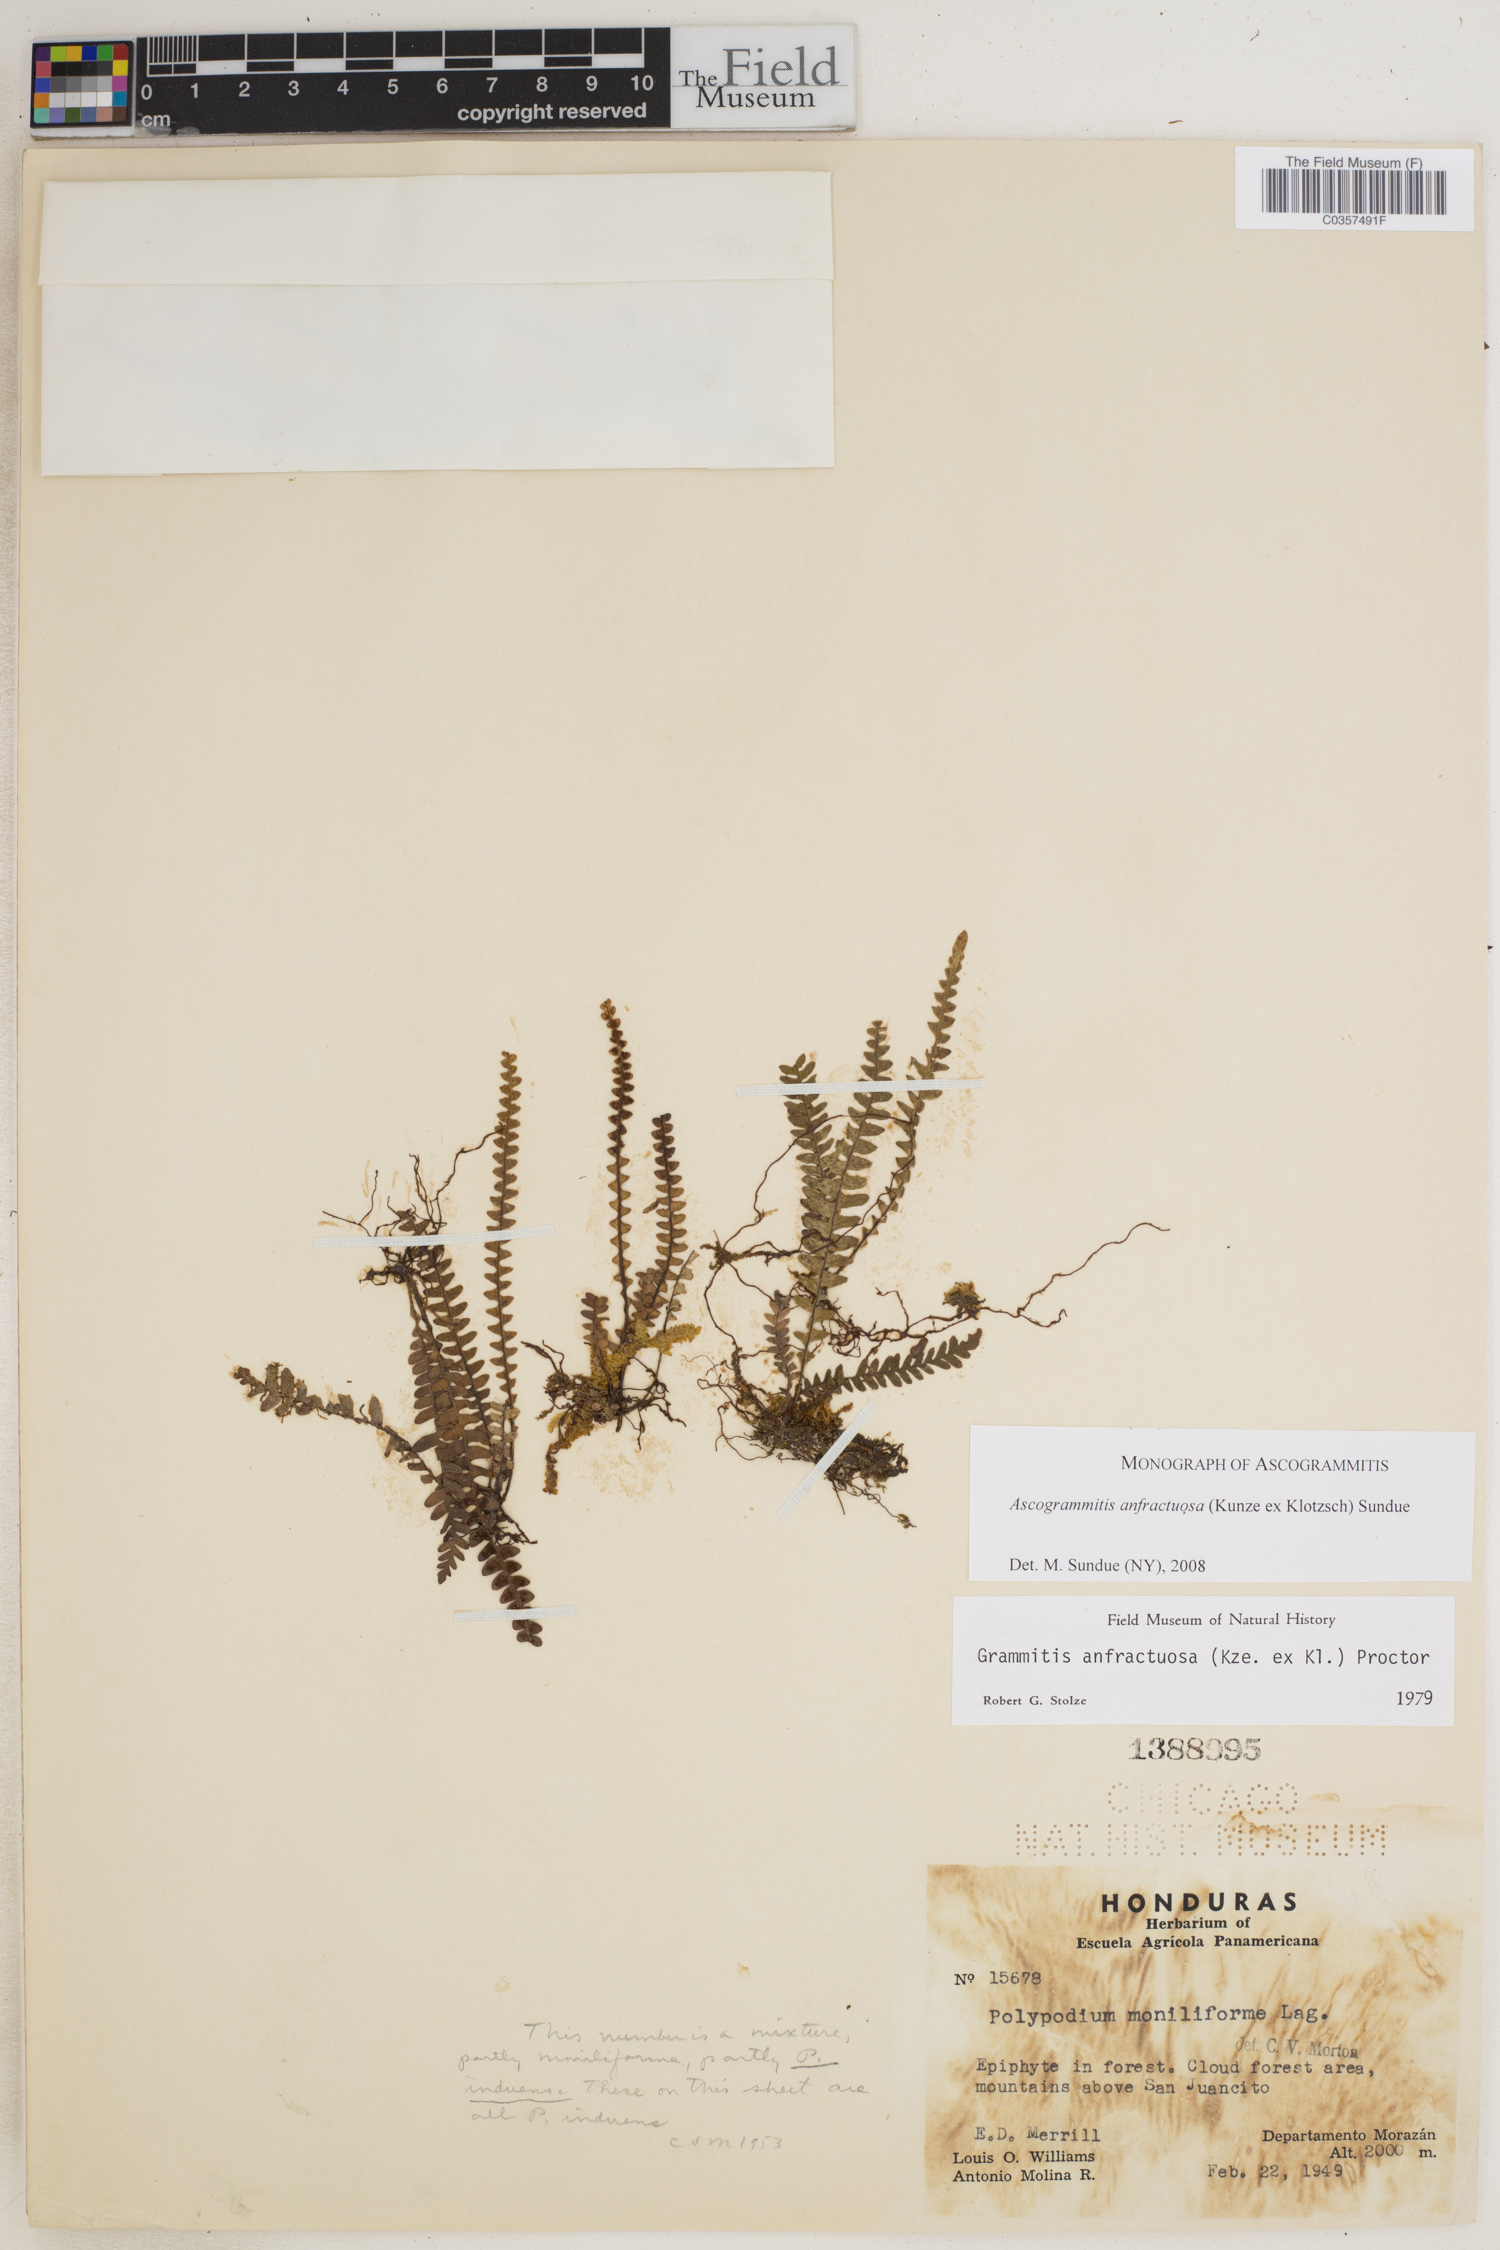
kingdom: Plantae
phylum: Tracheophyta
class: Polypodiopsida
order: Polypodiales
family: Polypodiaceae
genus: Ascogrammitis
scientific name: Ascogrammitis anfractuosa
